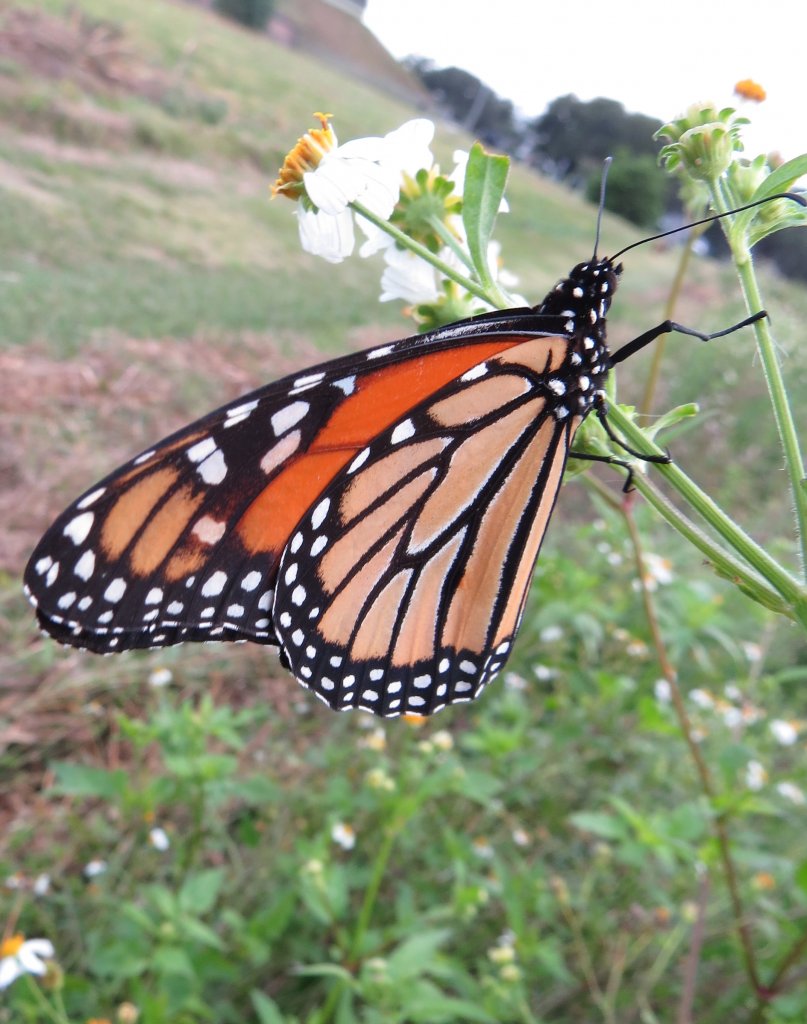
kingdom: Animalia
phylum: Arthropoda
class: Insecta
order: Lepidoptera
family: Nymphalidae
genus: Danaus
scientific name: Danaus plexippus
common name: Monarch
